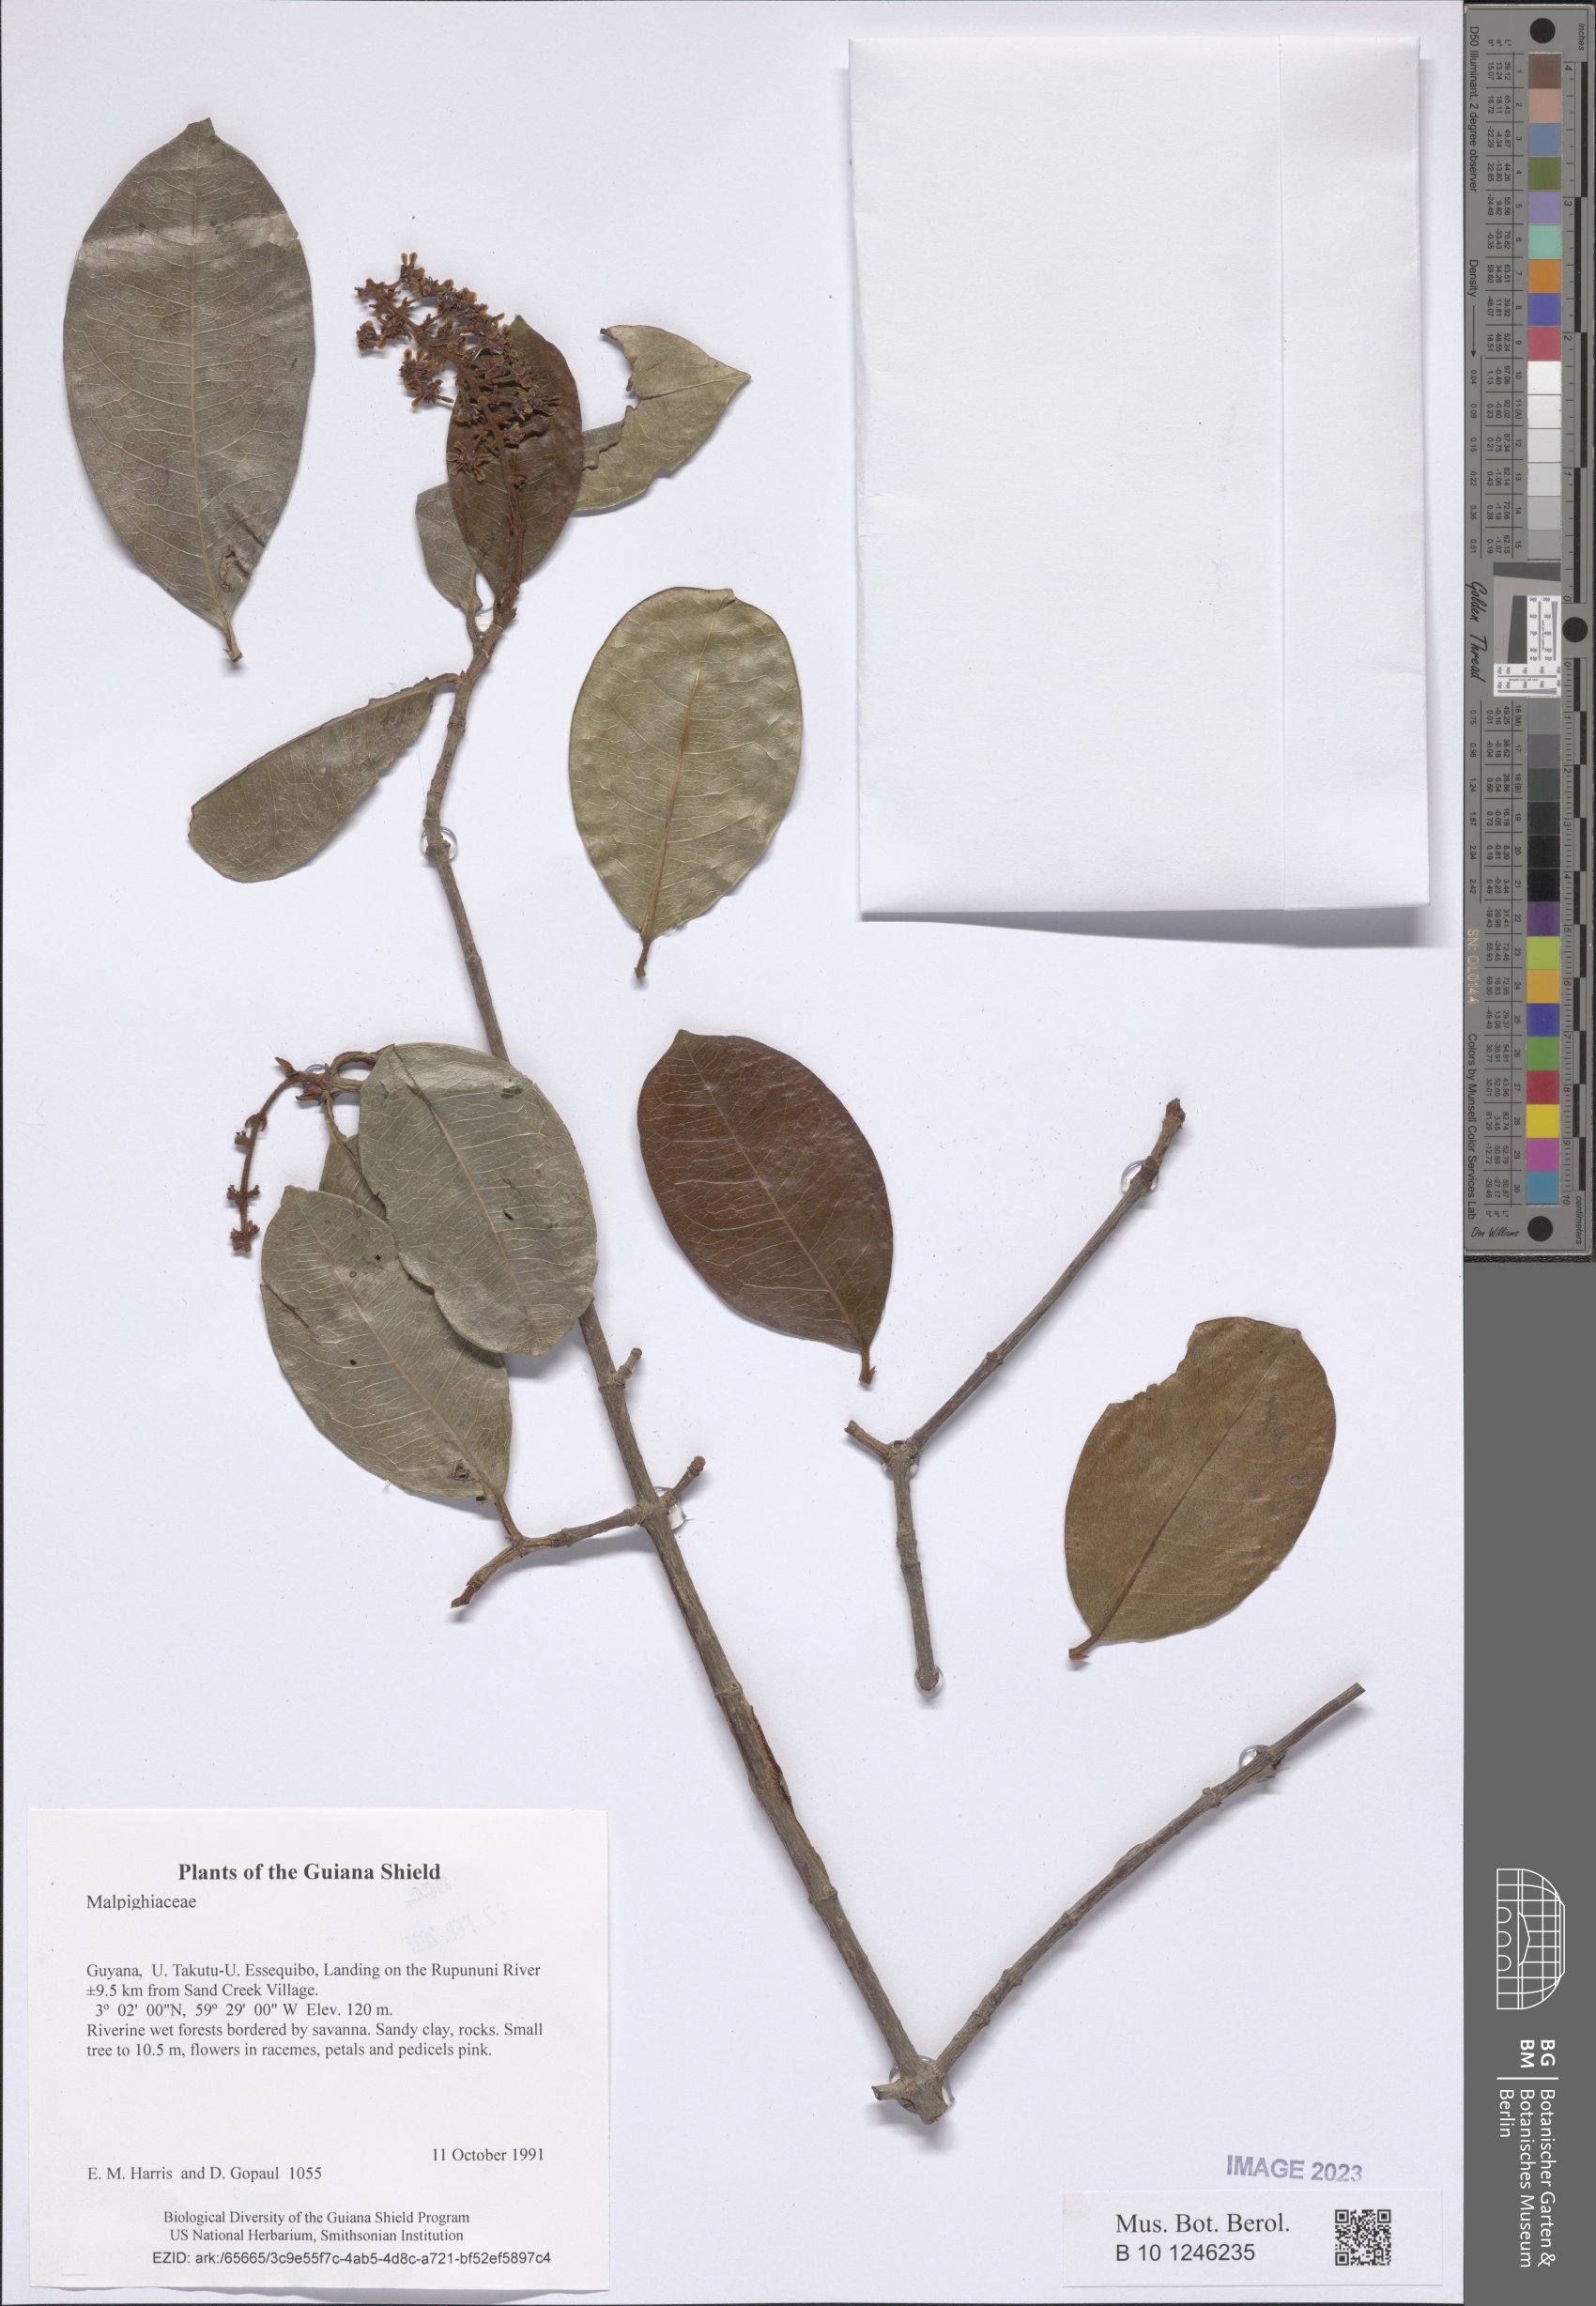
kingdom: Plantae
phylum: Tracheophyta
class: Magnoliopsida
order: Malpighiales
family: Malpighiaceae
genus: Spachea
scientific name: Spachea elegans
